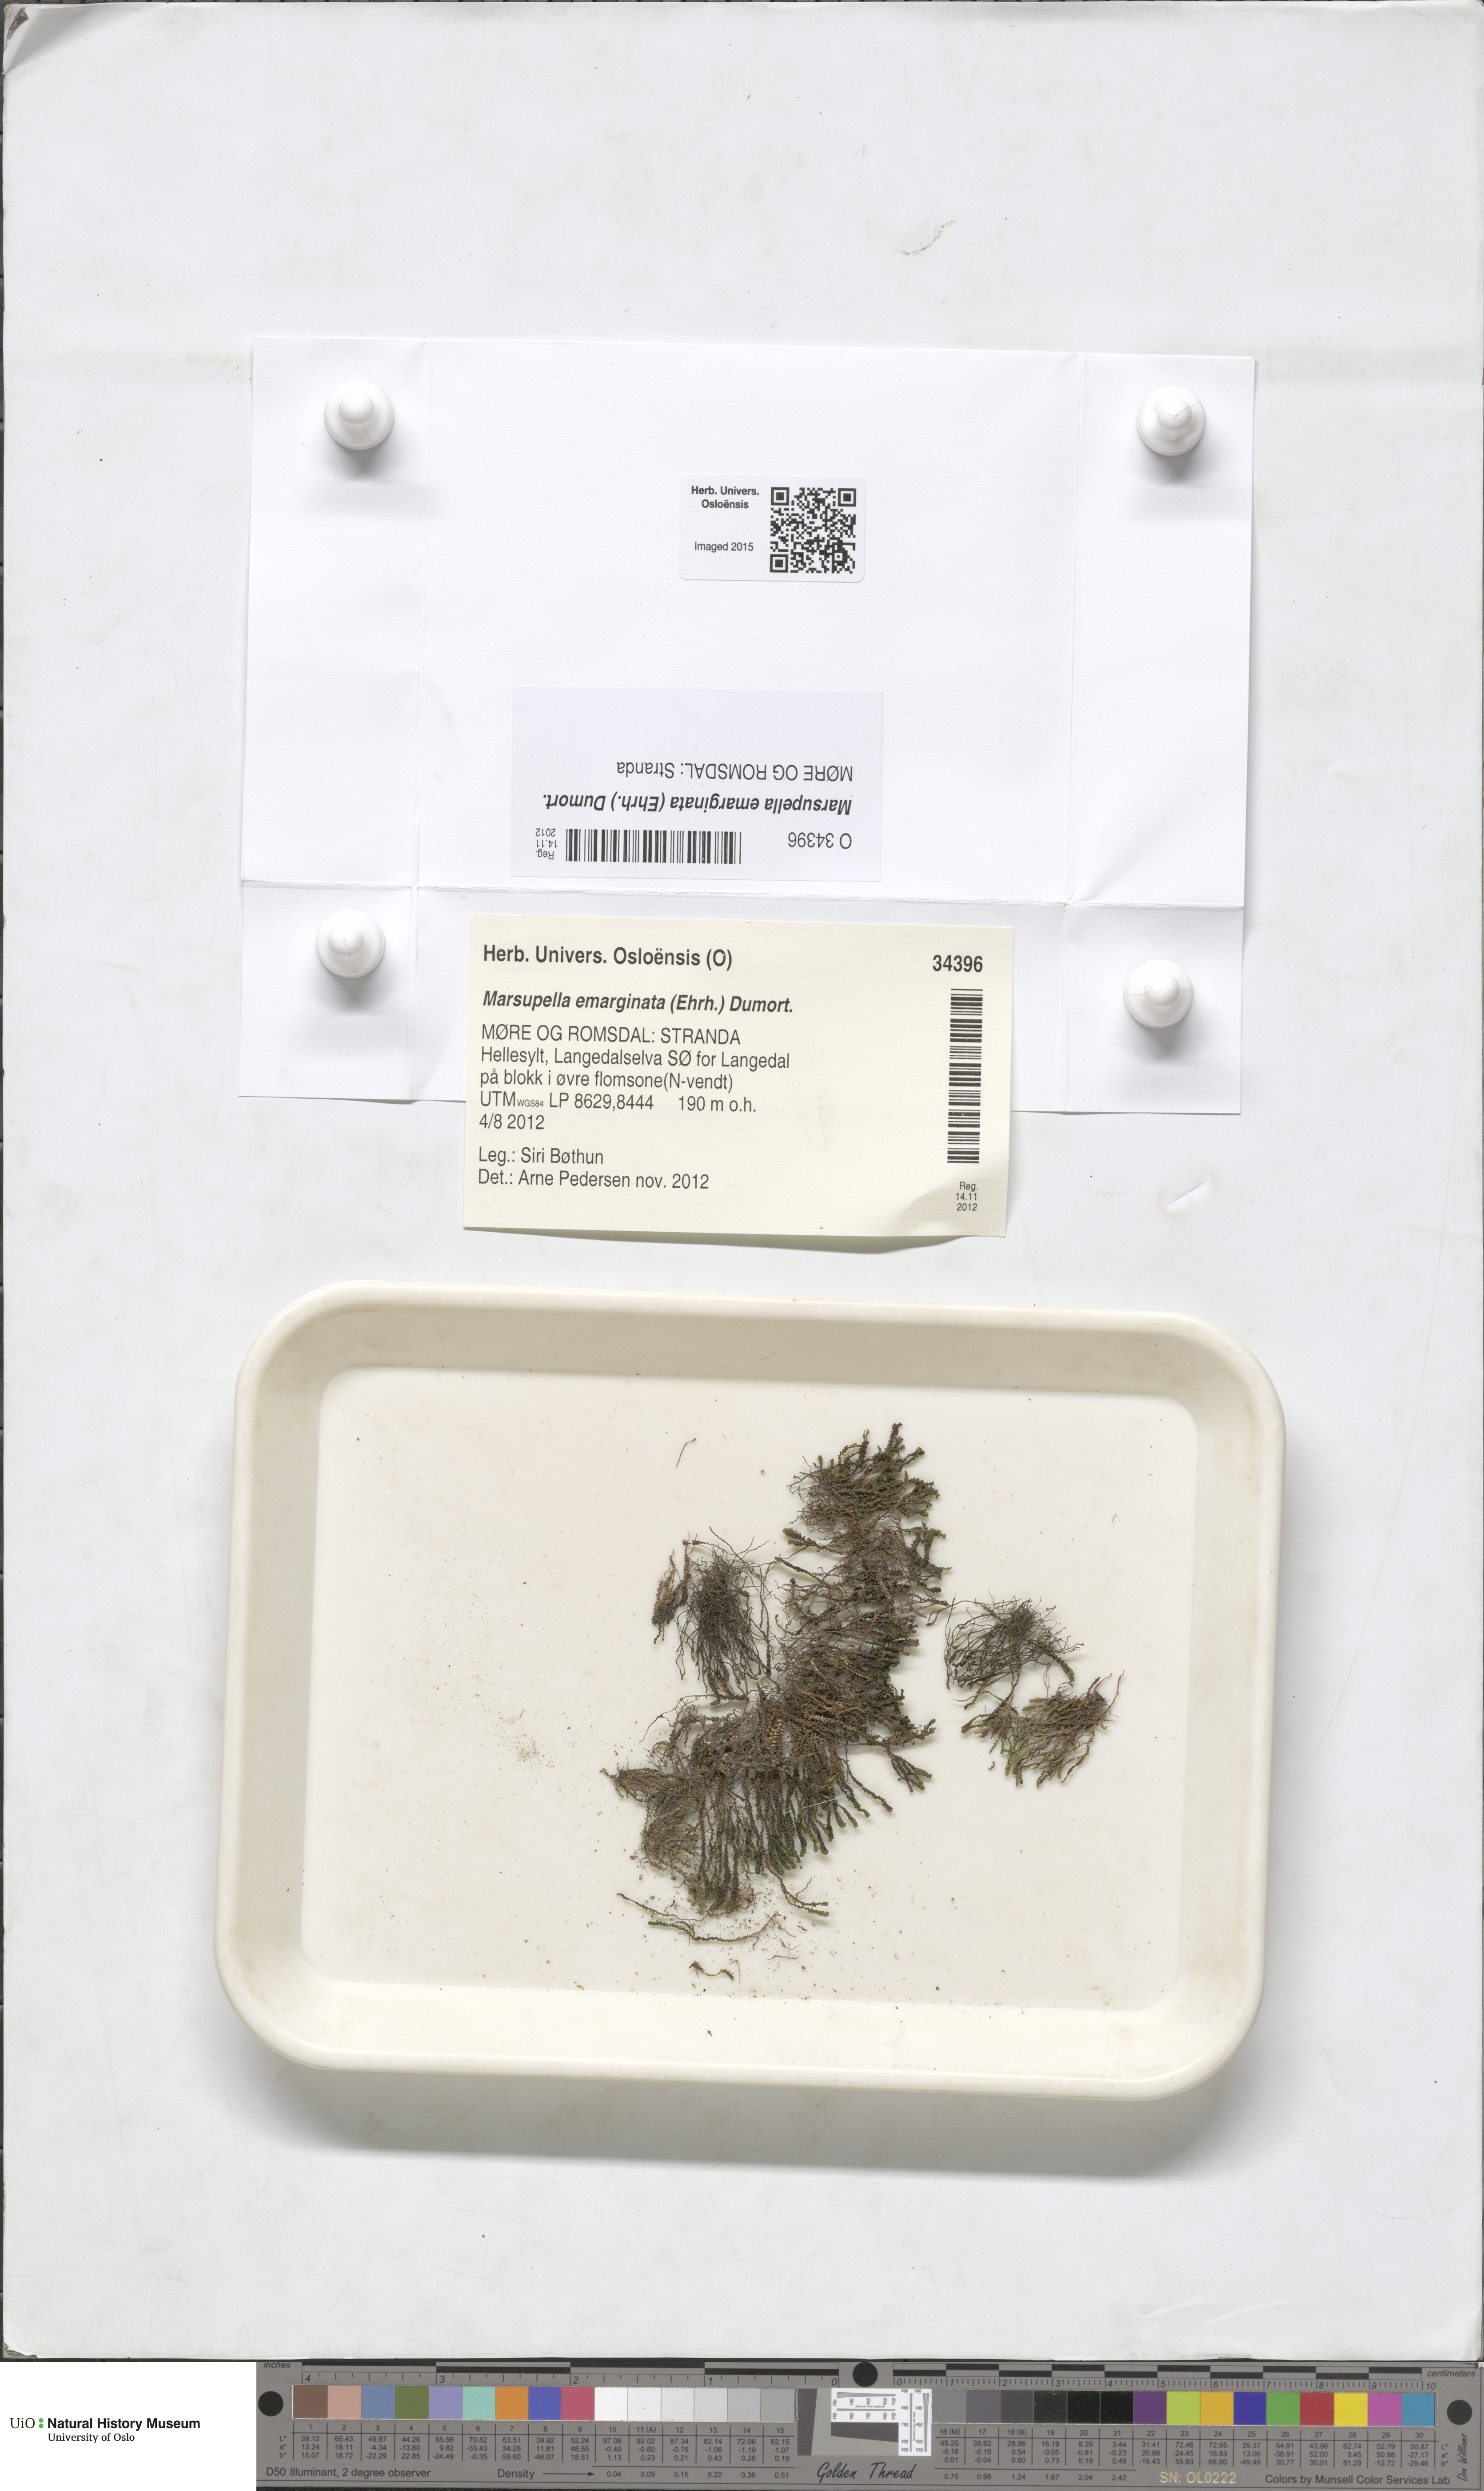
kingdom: Plantae
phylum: Marchantiophyta
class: Jungermanniopsida
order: Jungermanniales
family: Gymnomitriaceae
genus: Marsupella
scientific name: Marsupella emarginata
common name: Notched rustwort
